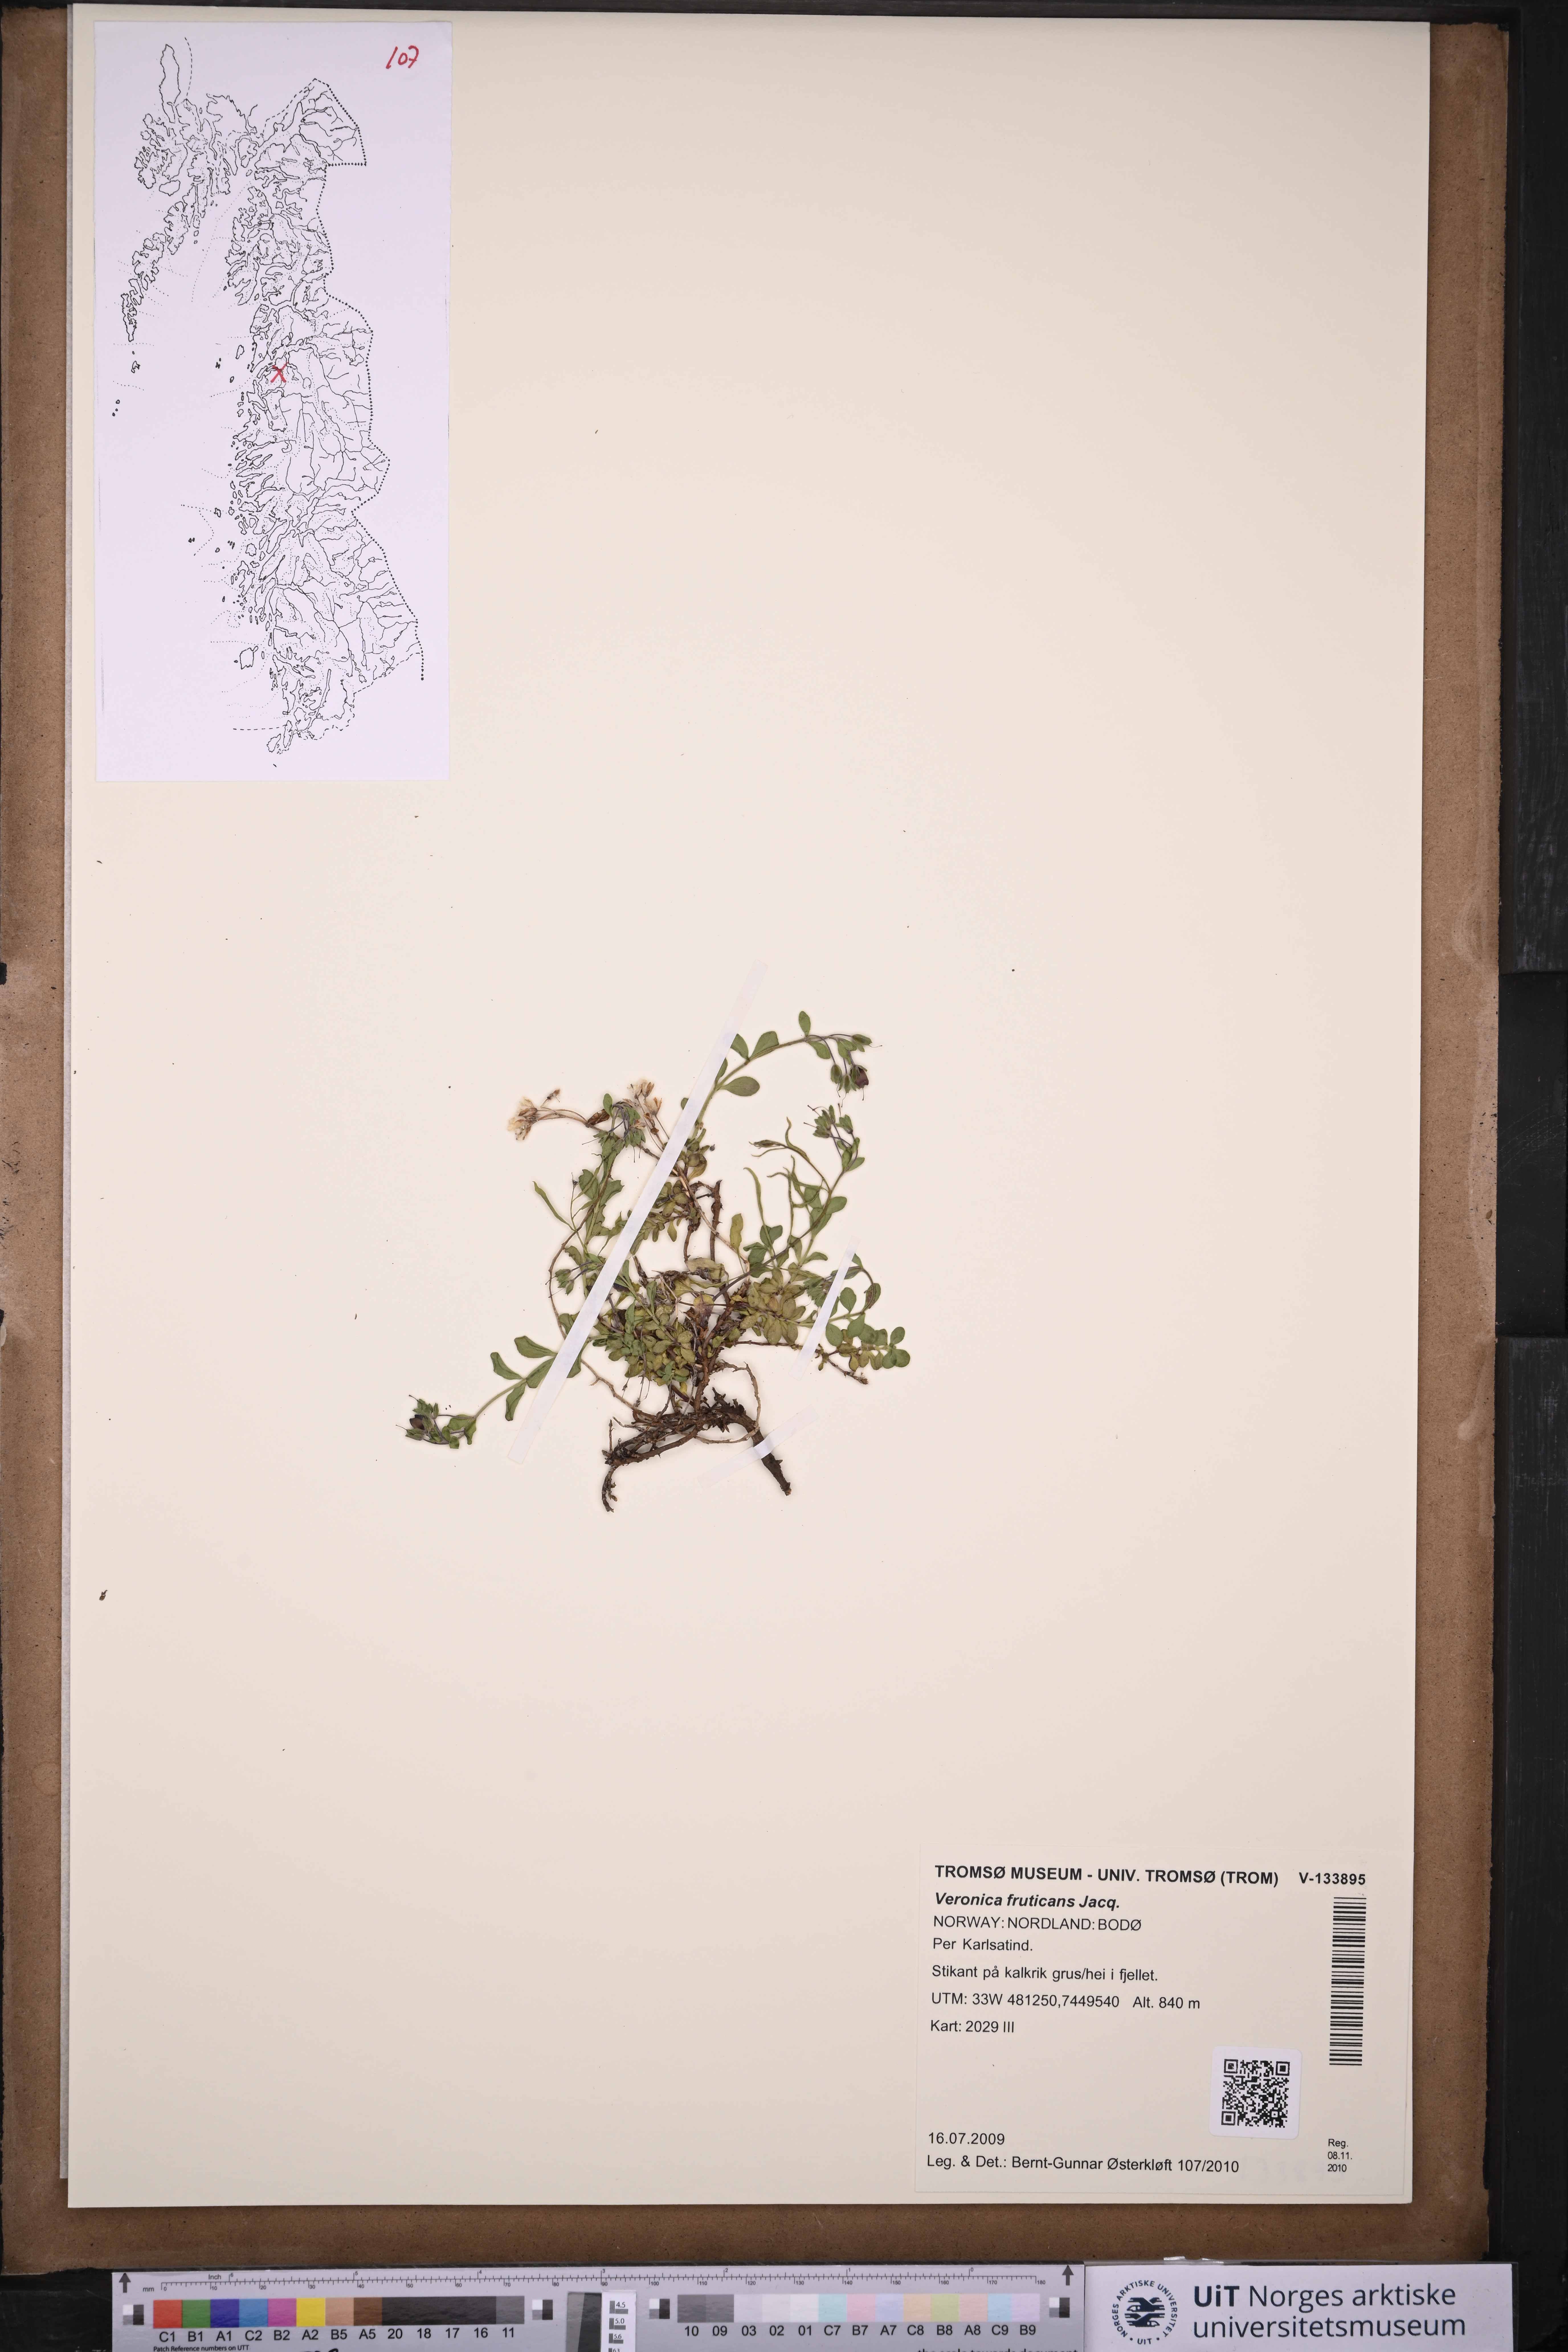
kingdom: Plantae
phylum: Tracheophyta
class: Magnoliopsida
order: Lamiales
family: Plantaginaceae
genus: Veronica
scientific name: Veronica fruticans
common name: Rock speedwell
